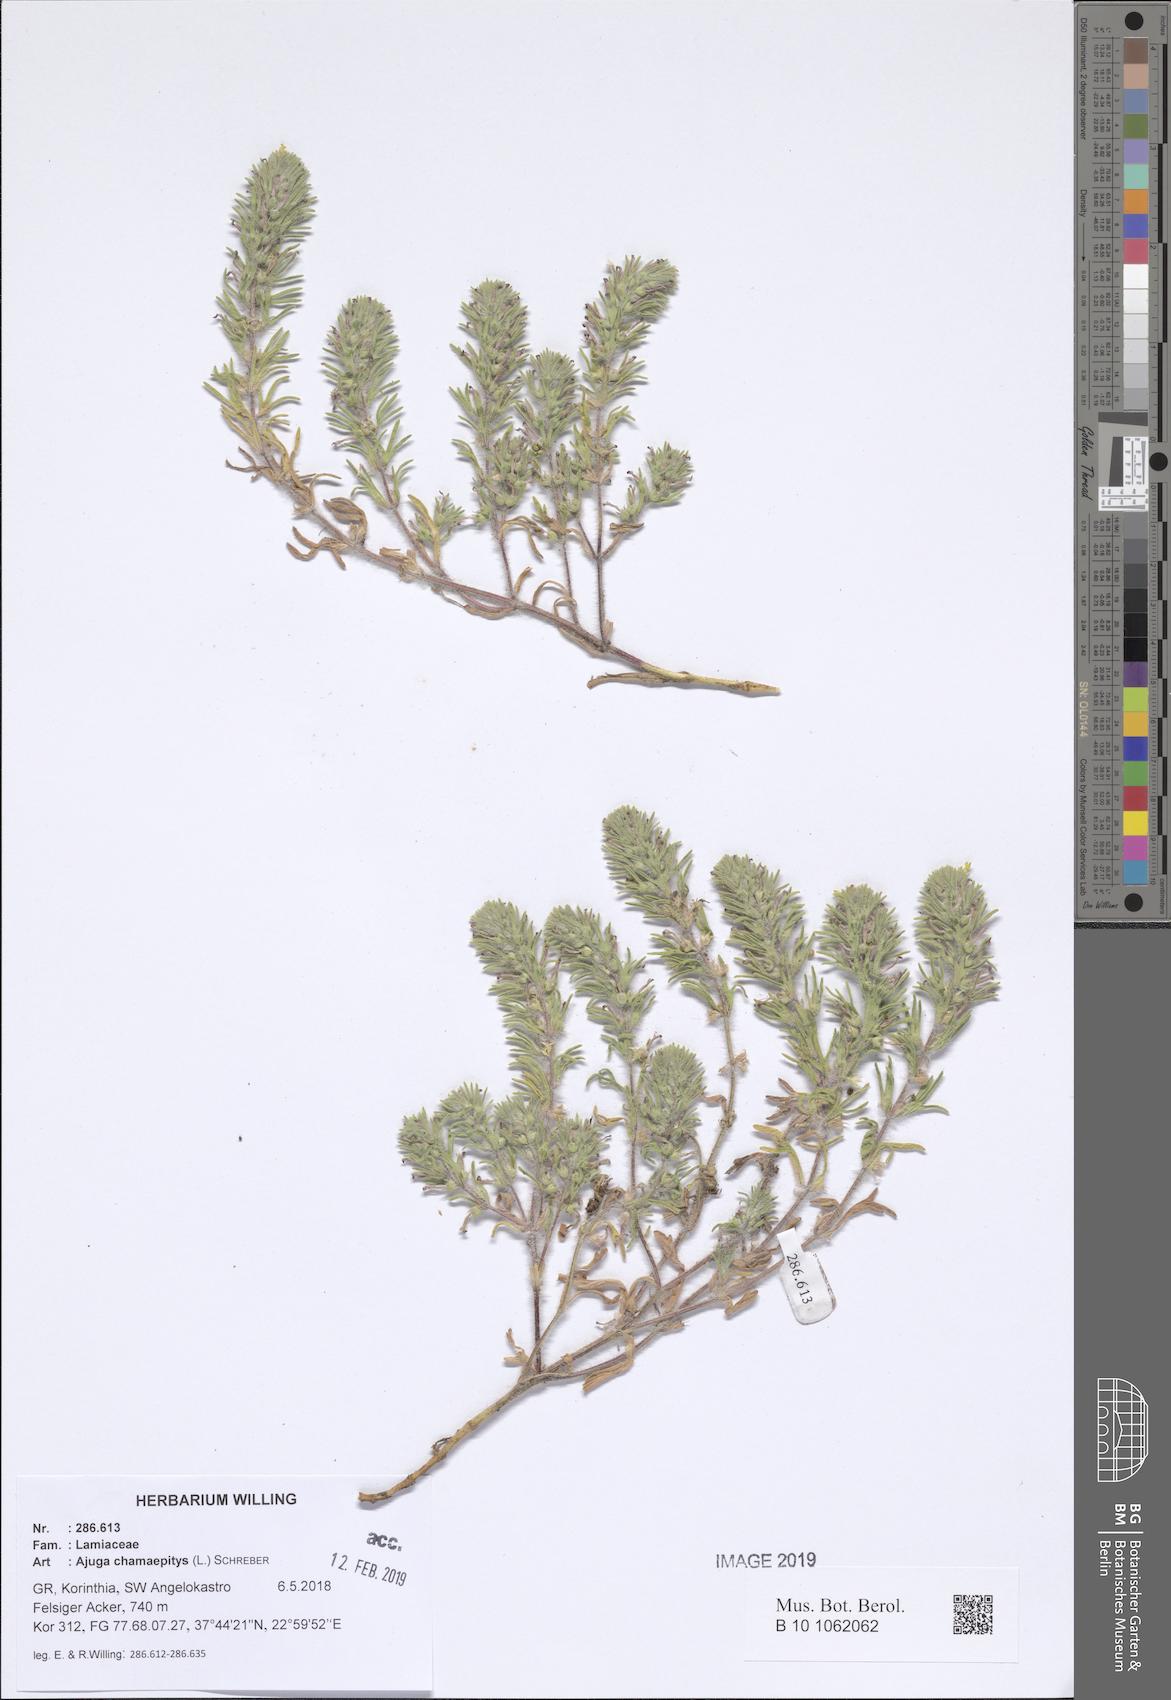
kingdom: Plantae
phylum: Tracheophyta
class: Magnoliopsida
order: Lamiales
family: Lamiaceae
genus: Ajuga
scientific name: Ajuga chamaepitys
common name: Ground-pine
